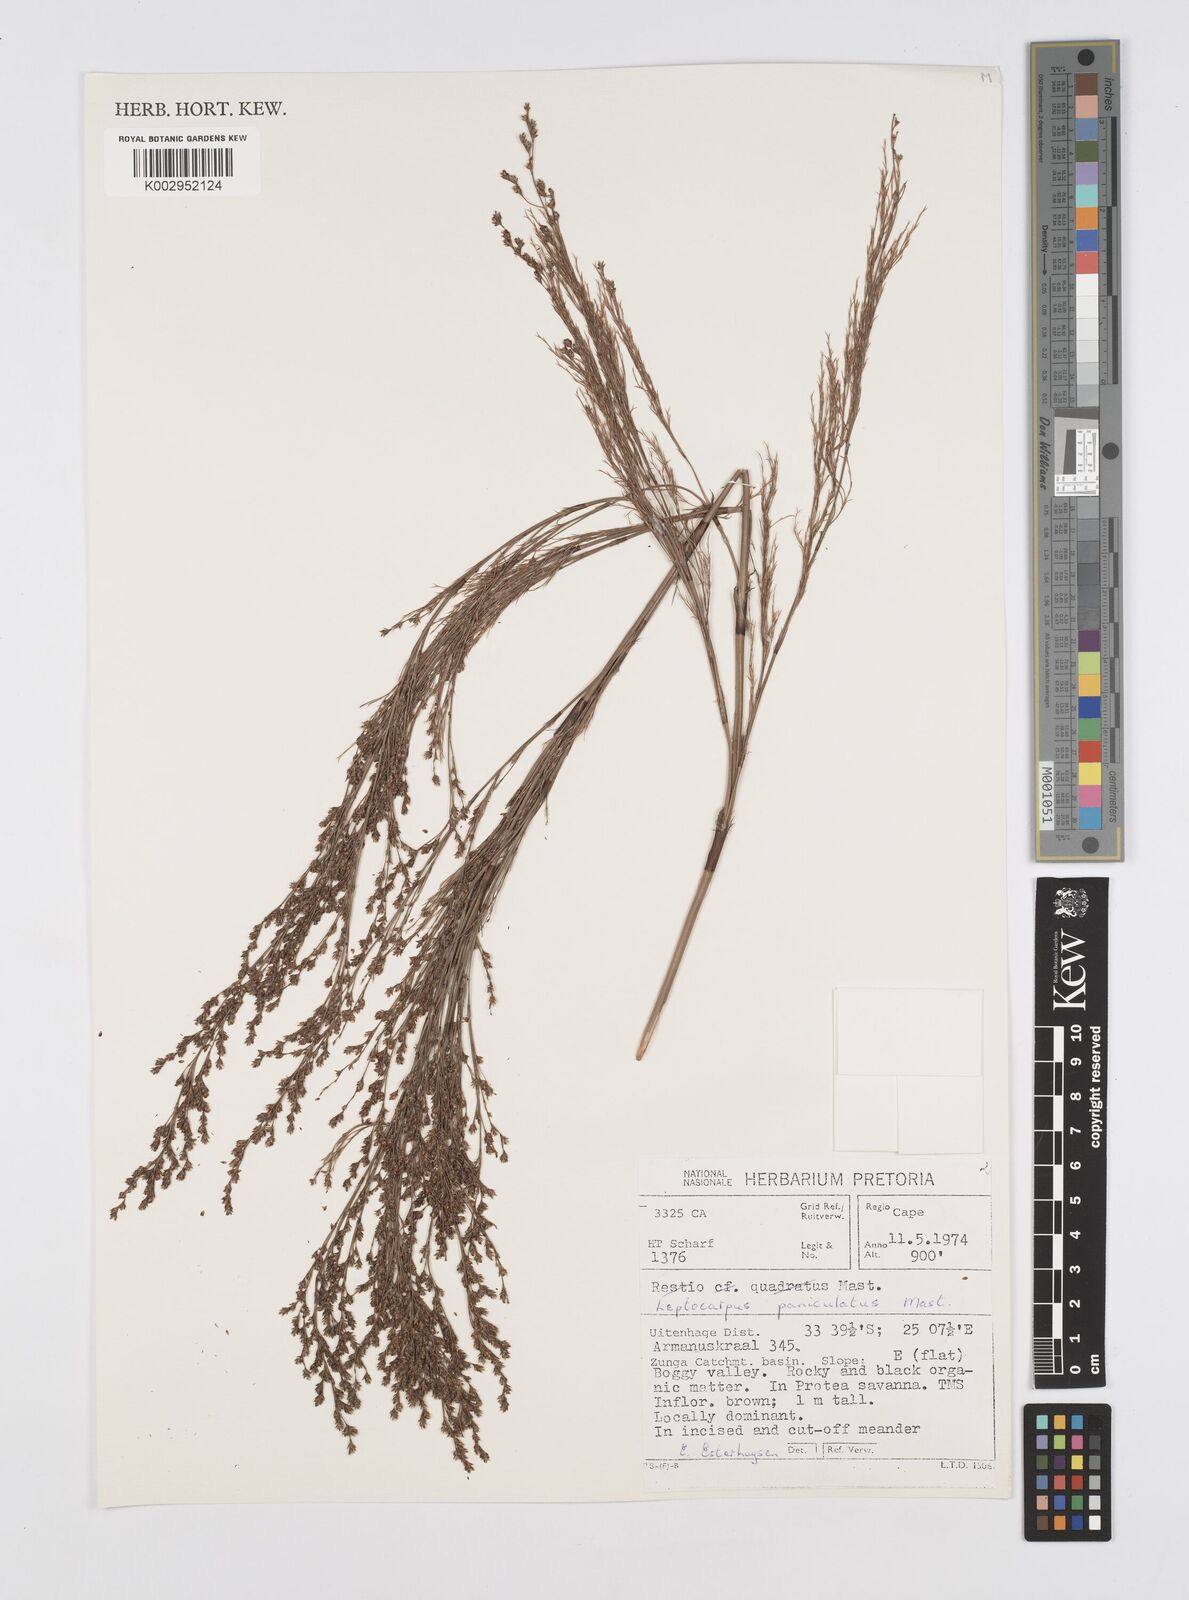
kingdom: Plantae
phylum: Tracheophyta
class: Liliopsida
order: Poales
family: Restionaceae
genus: Restio
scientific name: Restio
